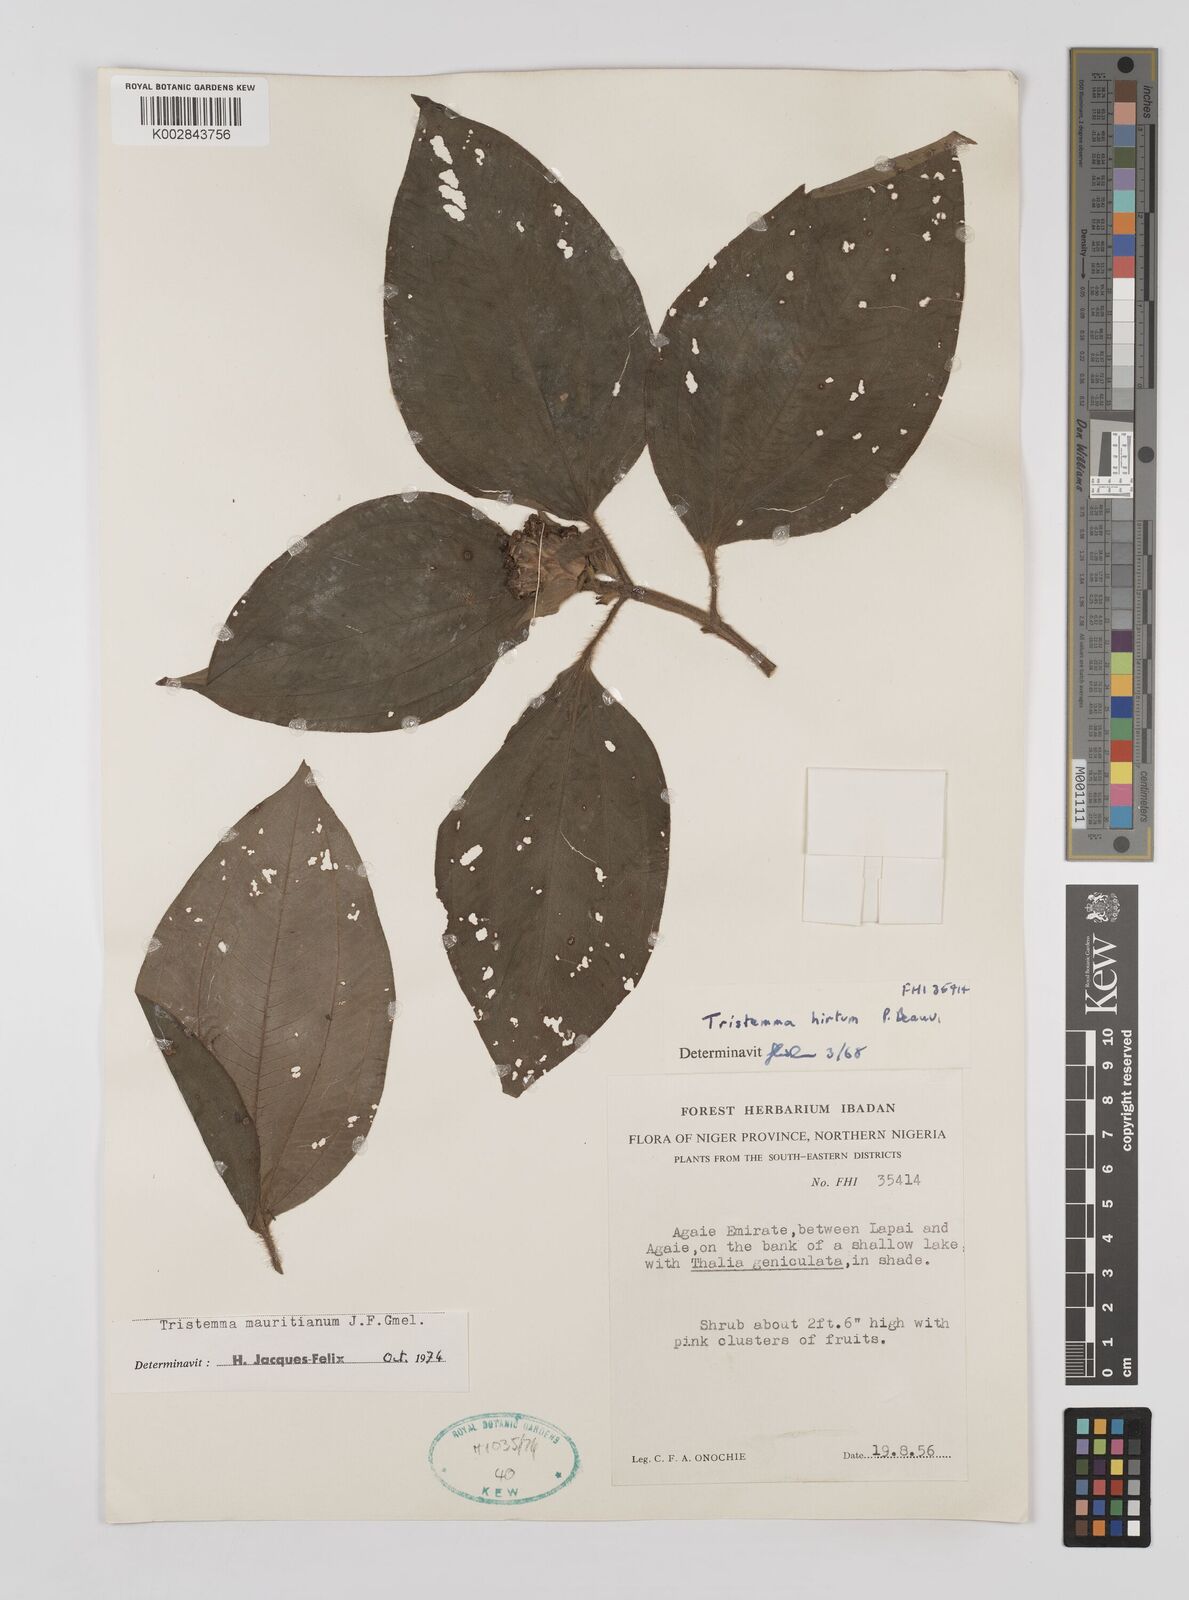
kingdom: Plantae
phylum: Tracheophyta
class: Magnoliopsida
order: Myrtales
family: Melastomataceae
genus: Tristemma
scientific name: Tristemma mauritianum
